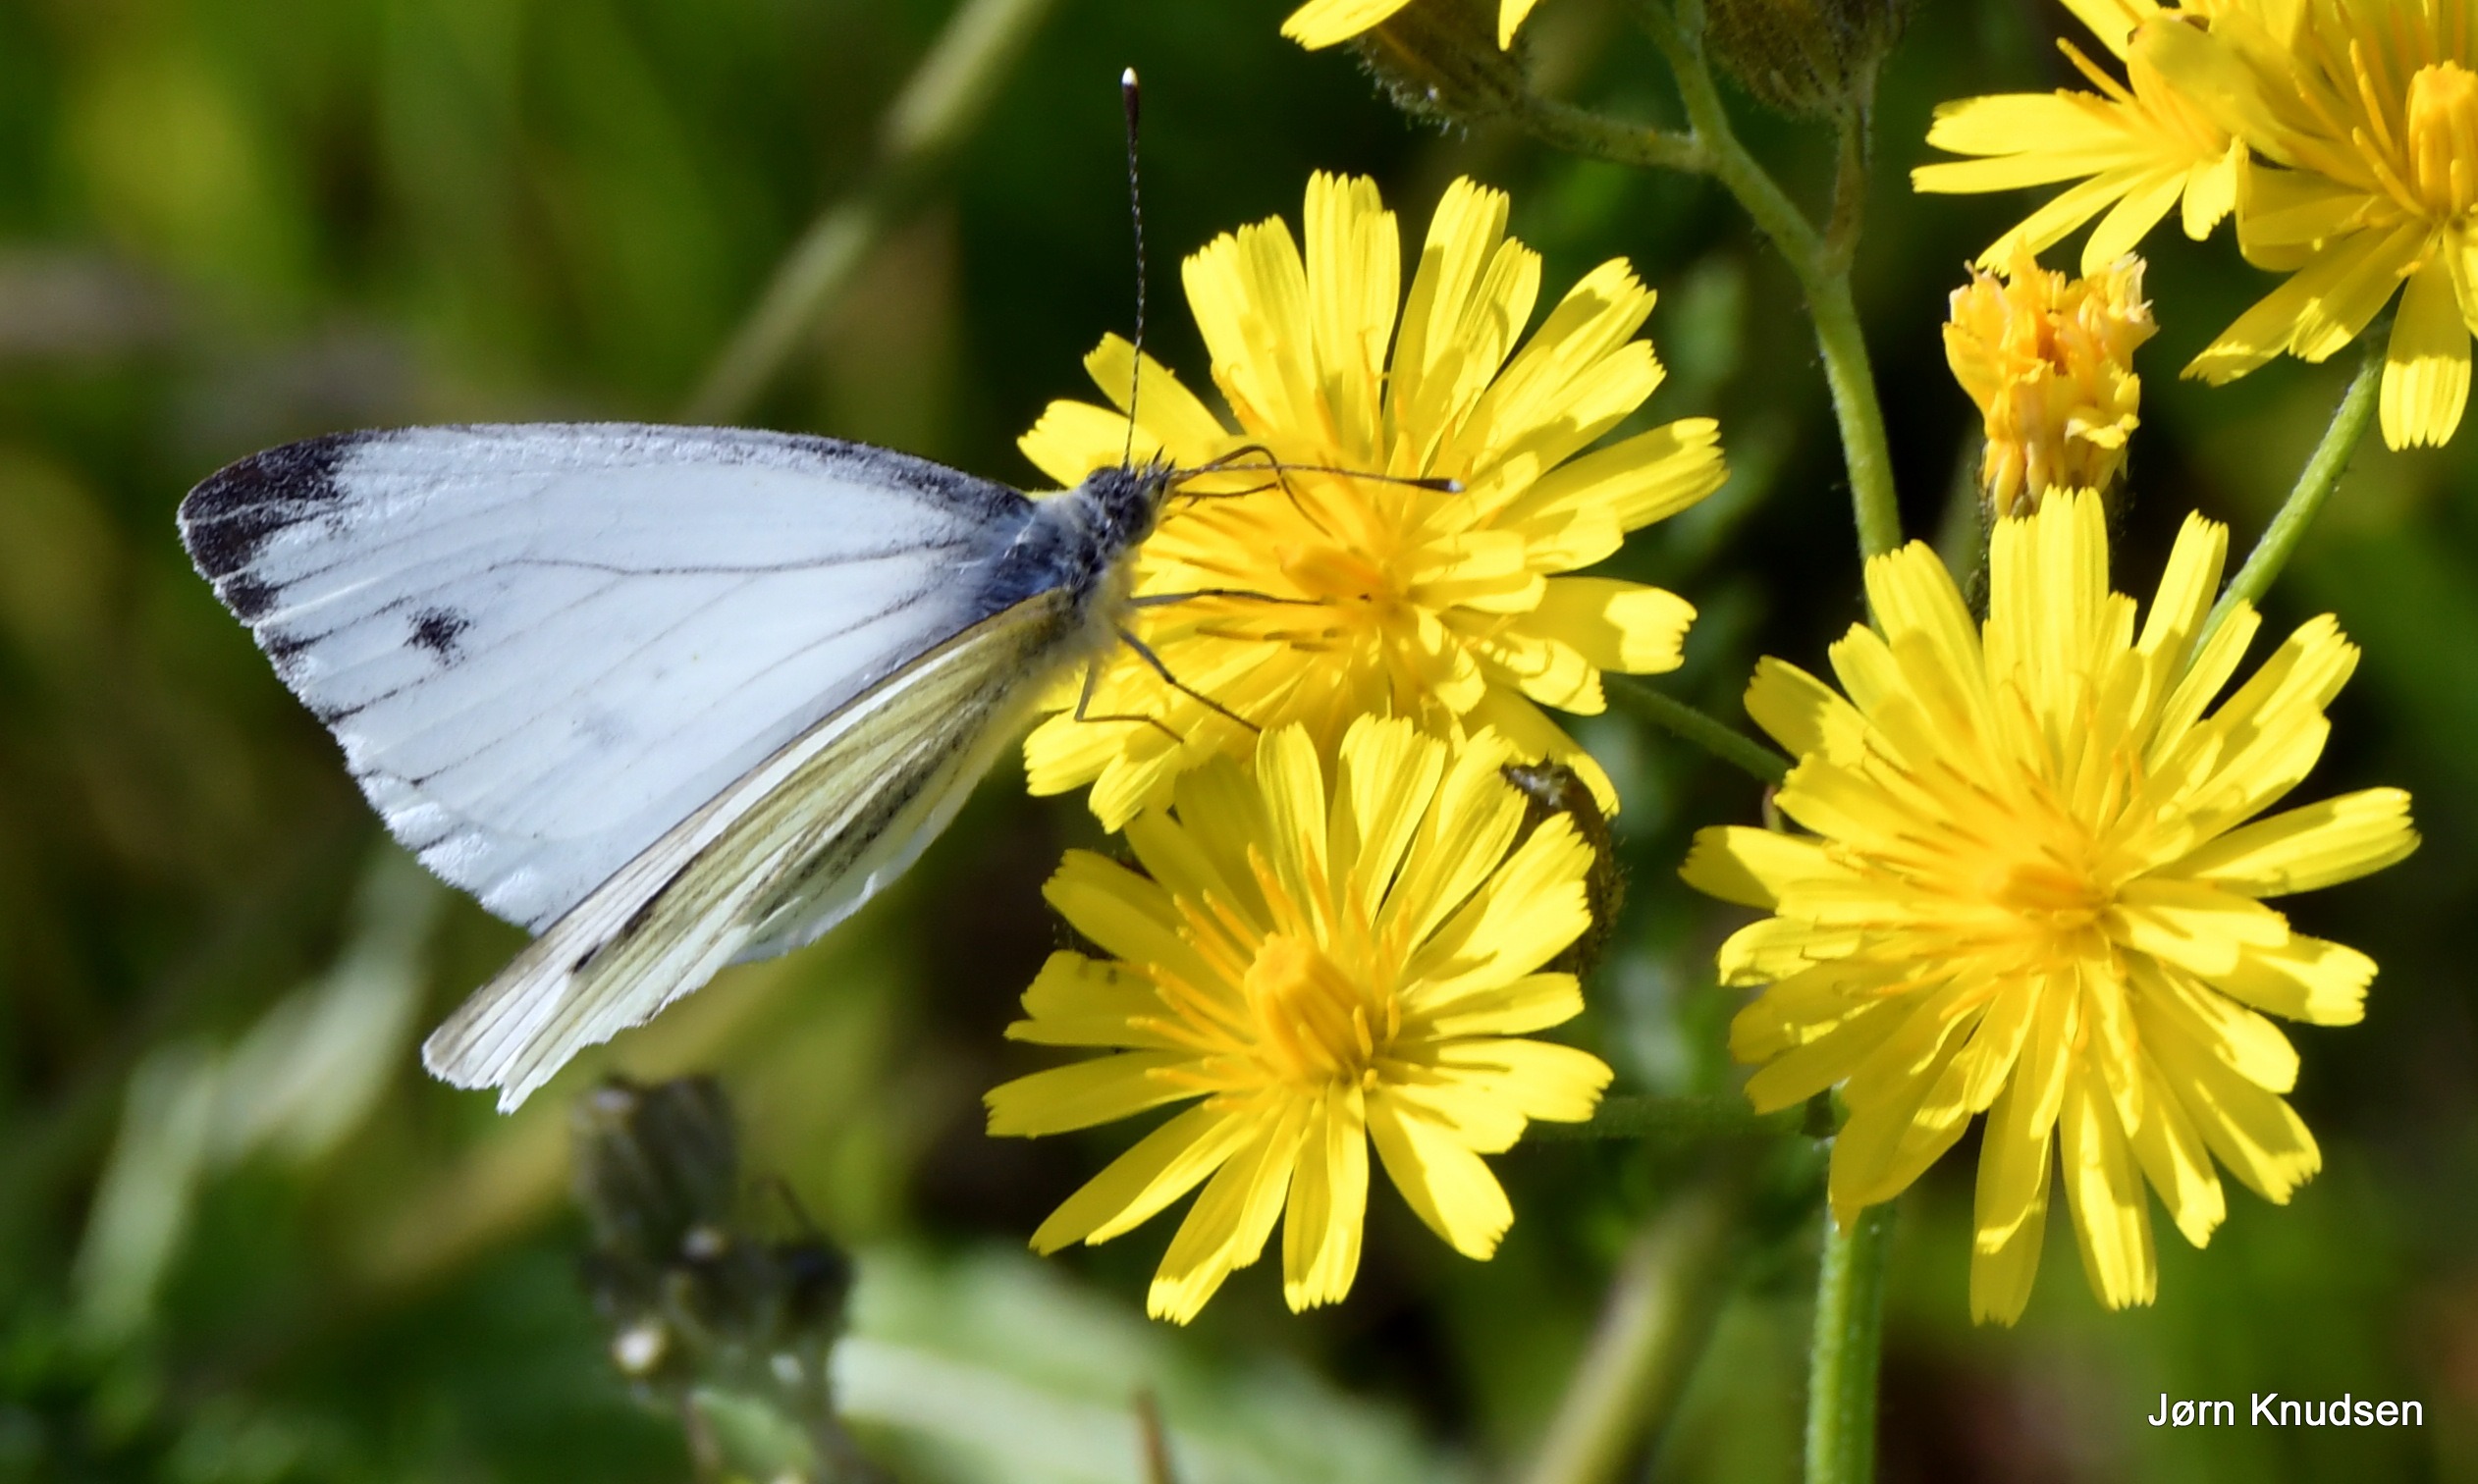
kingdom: Animalia
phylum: Arthropoda
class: Insecta
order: Lepidoptera
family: Pieridae
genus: Pieris
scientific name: Pieris napi
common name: Grønåret kålsommerfugl
